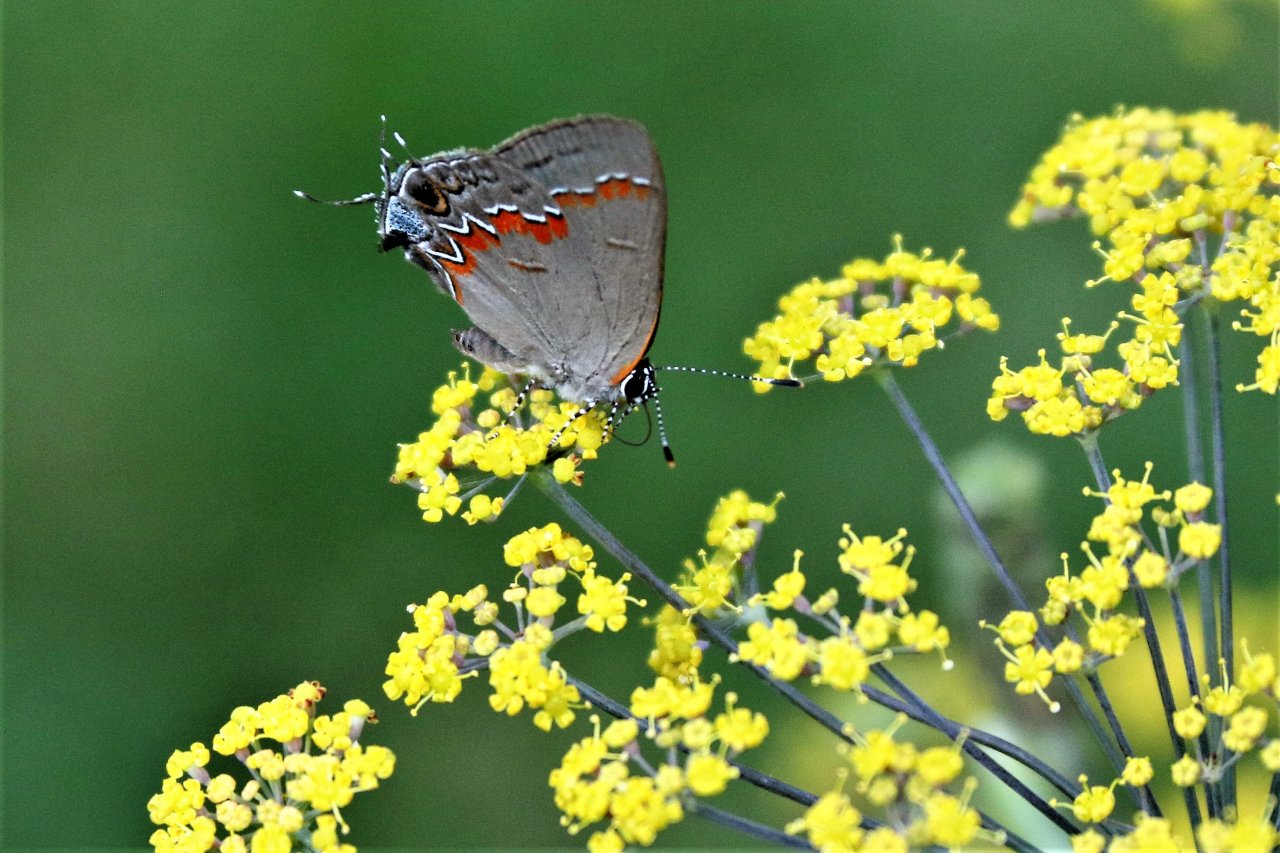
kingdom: Animalia
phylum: Arthropoda
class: Insecta
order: Lepidoptera
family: Lycaenidae
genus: Calycopis
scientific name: Calycopis cecrops
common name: Red-banded Hairstreak
